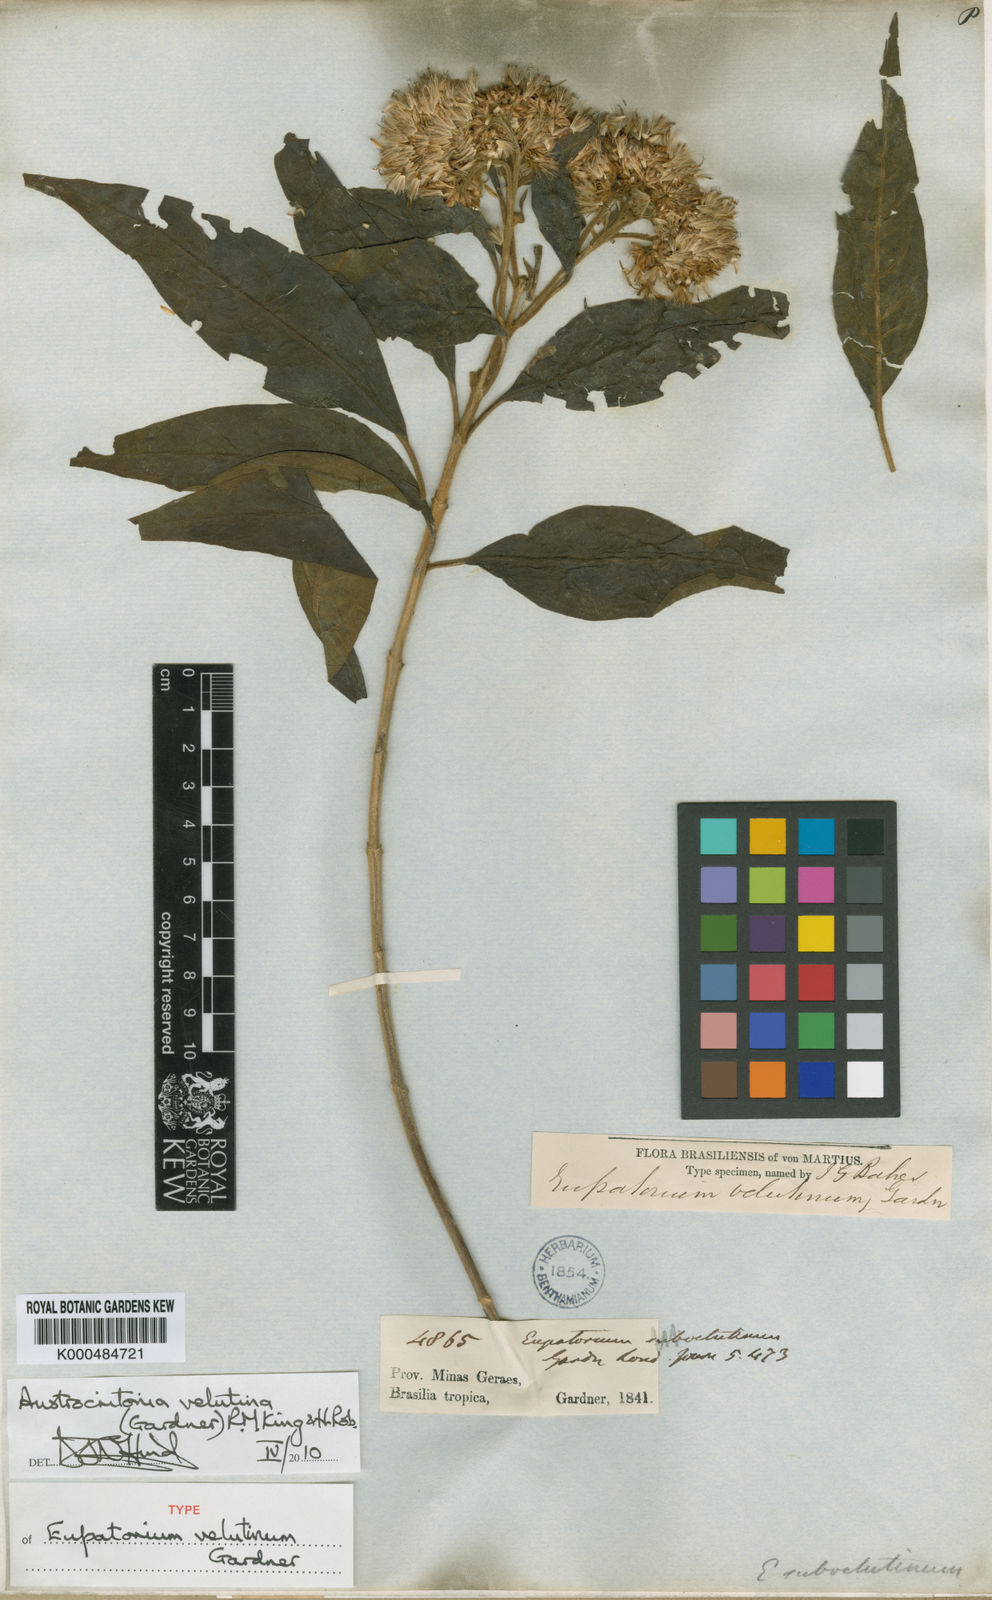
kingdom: Plantae
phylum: Tracheophyta
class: Magnoliopsida
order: Asterales
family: Asteraceae
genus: Austrocritonia
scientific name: Austrocritonia velutina
